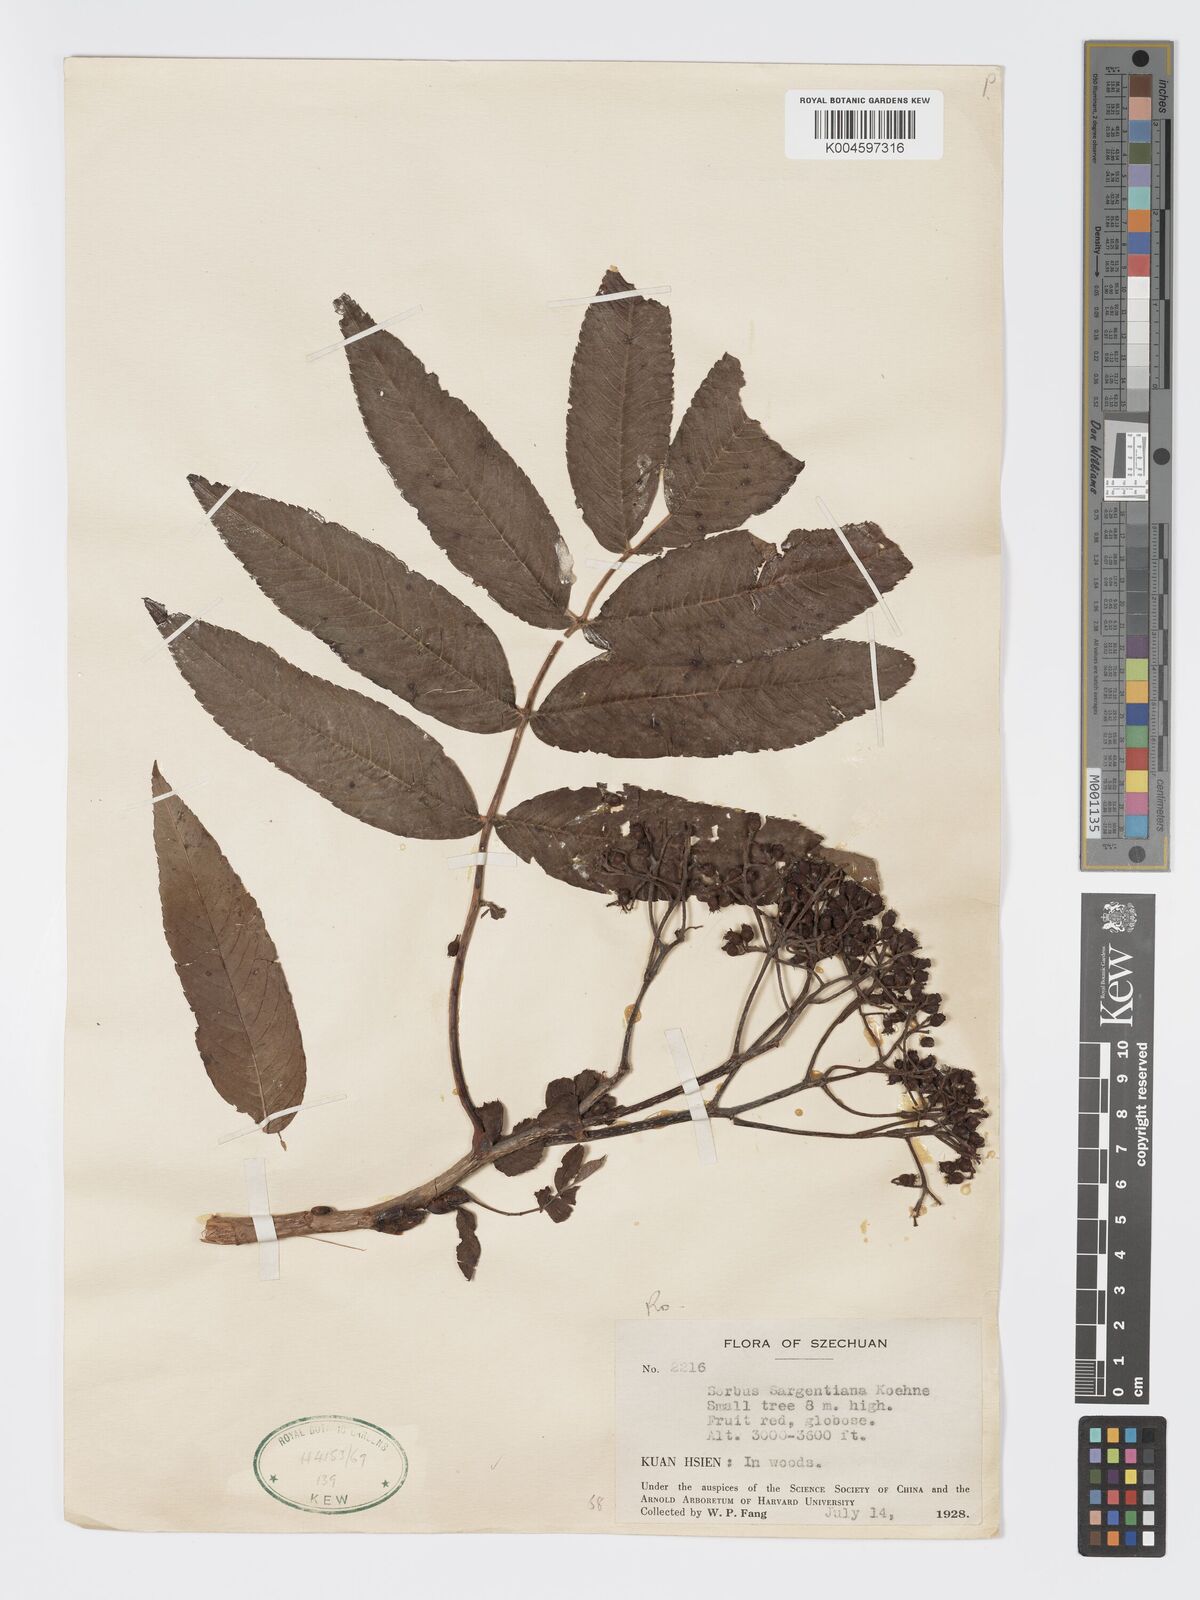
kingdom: Plantae
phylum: Tracheophyta
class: Magnoliopsida
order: Rosales
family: Rosaceae
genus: Sorbus
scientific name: Sorbus sargentiana
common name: Sargent's rowan
